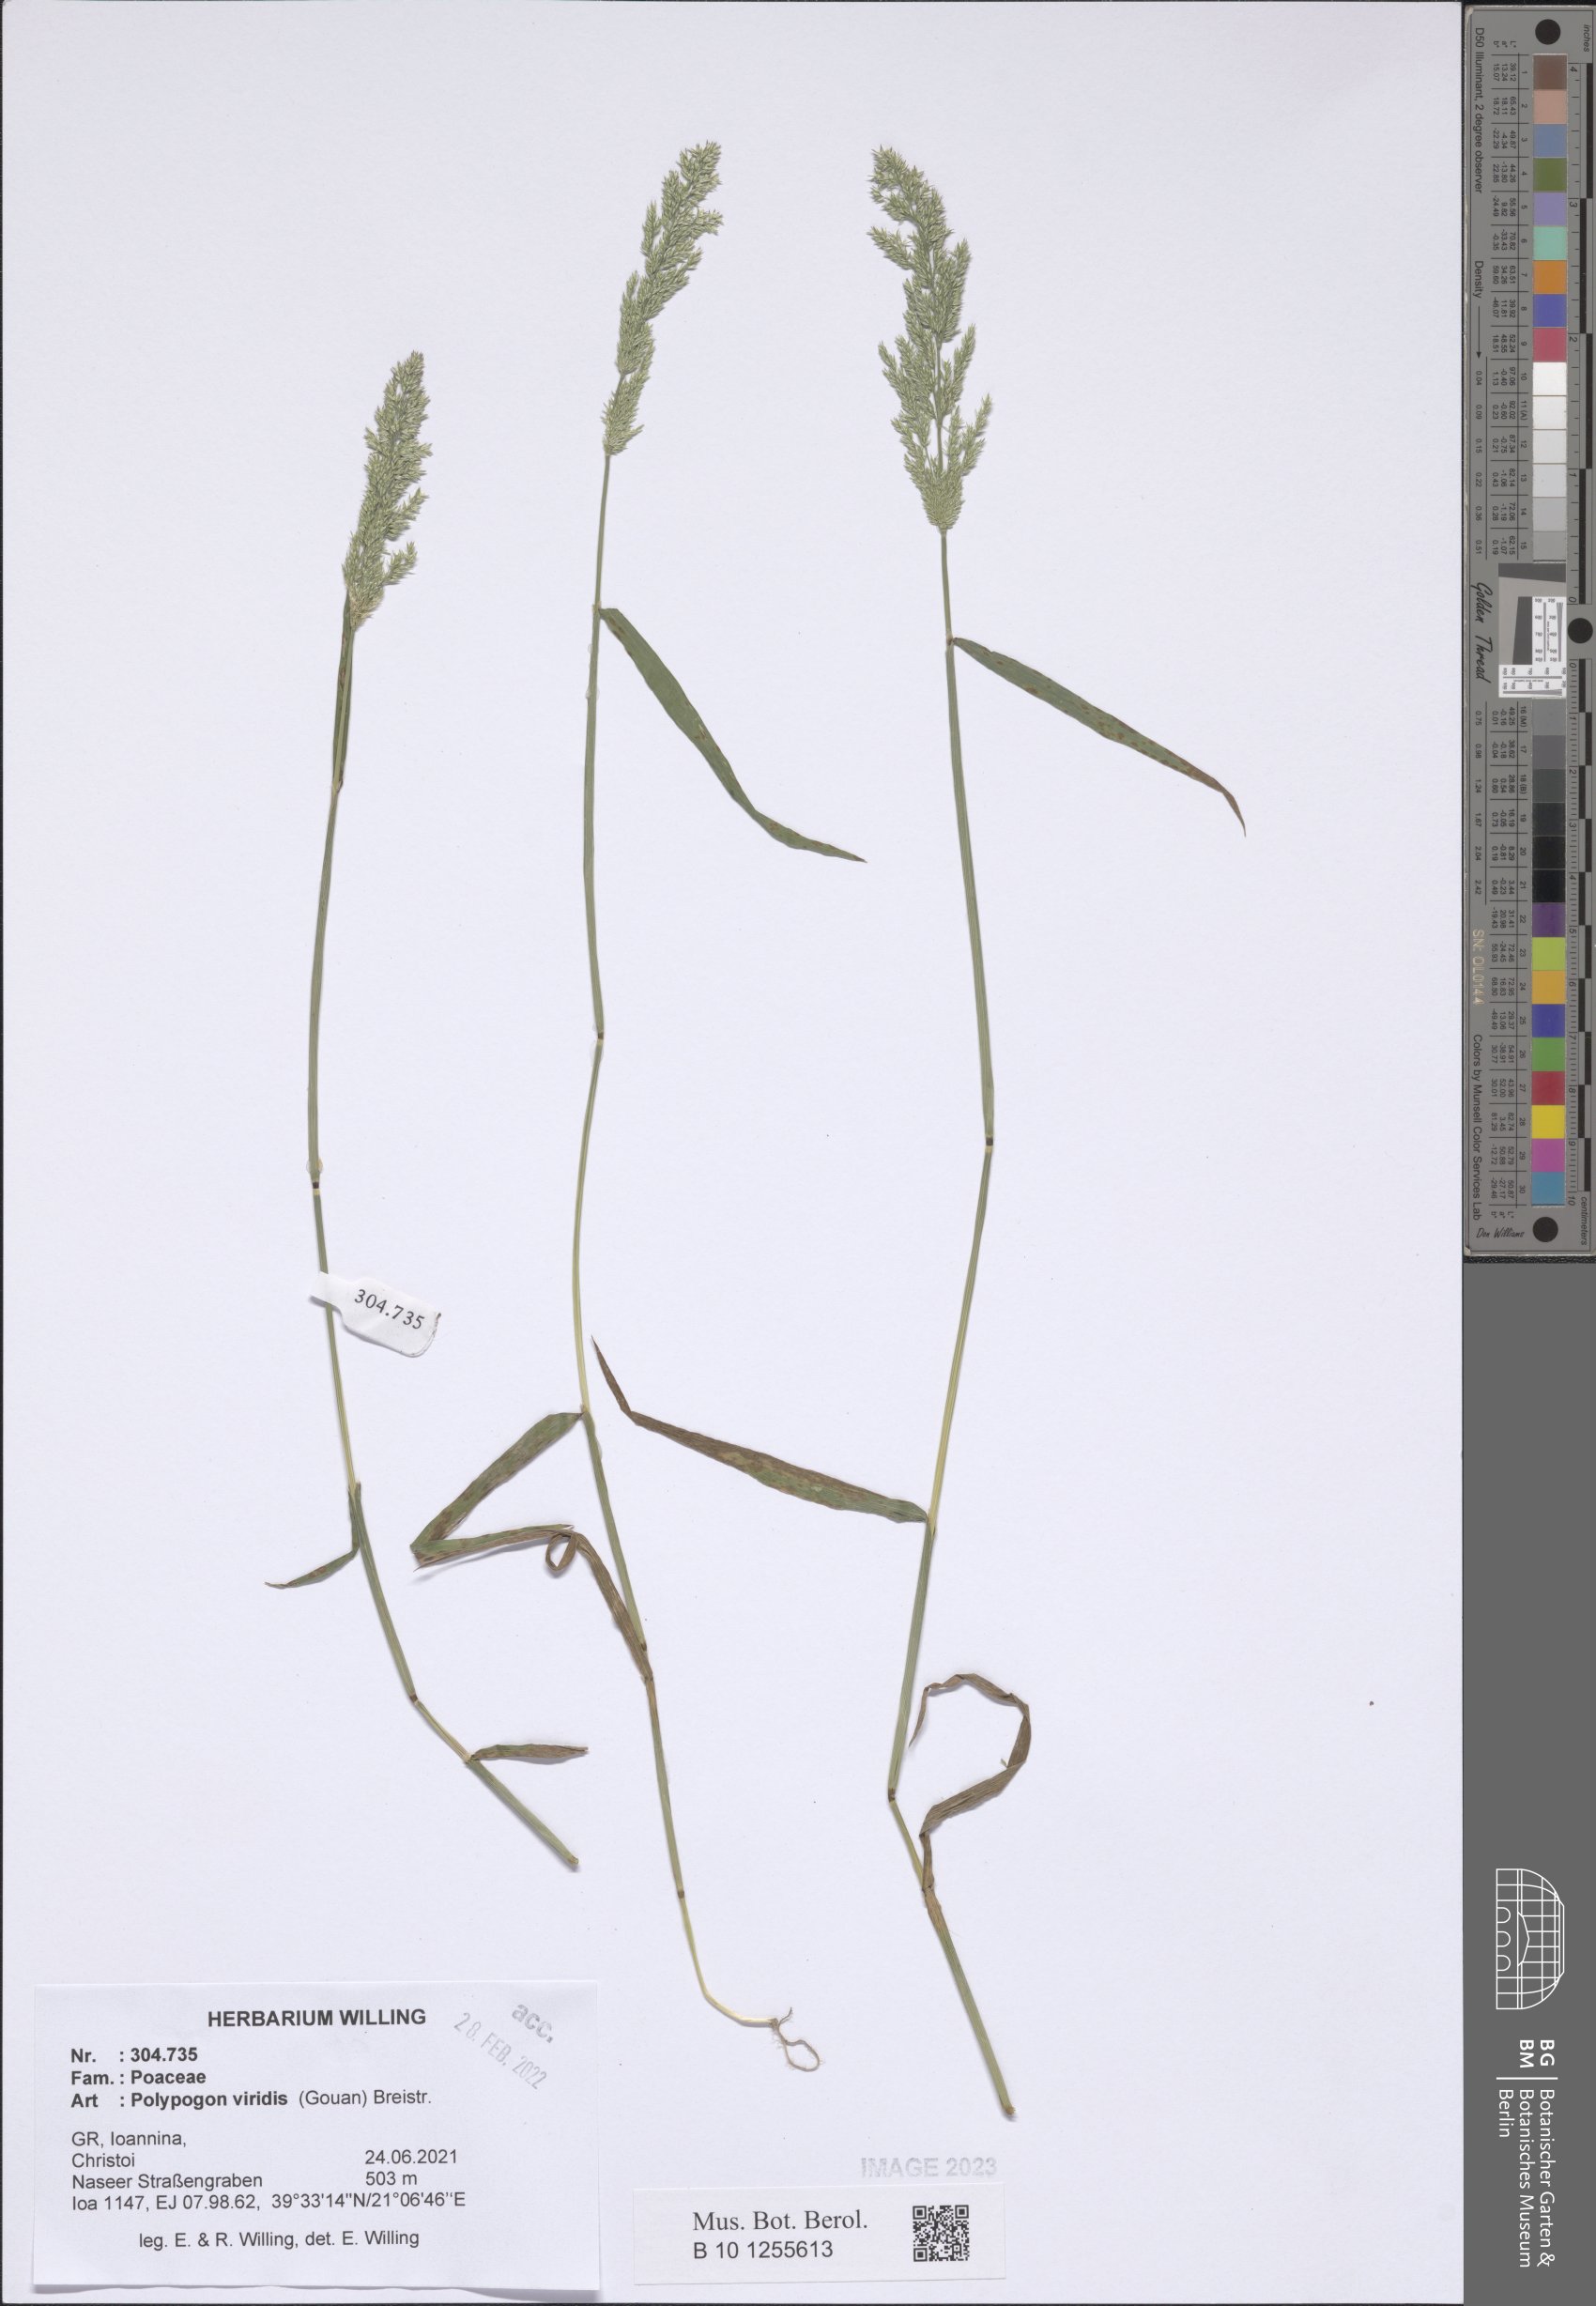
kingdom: Plantae
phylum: Tracheophyta
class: Liliopsida
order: Poales
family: Poaceae
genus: Polypogon
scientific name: Polypogon viridis
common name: Water bent
